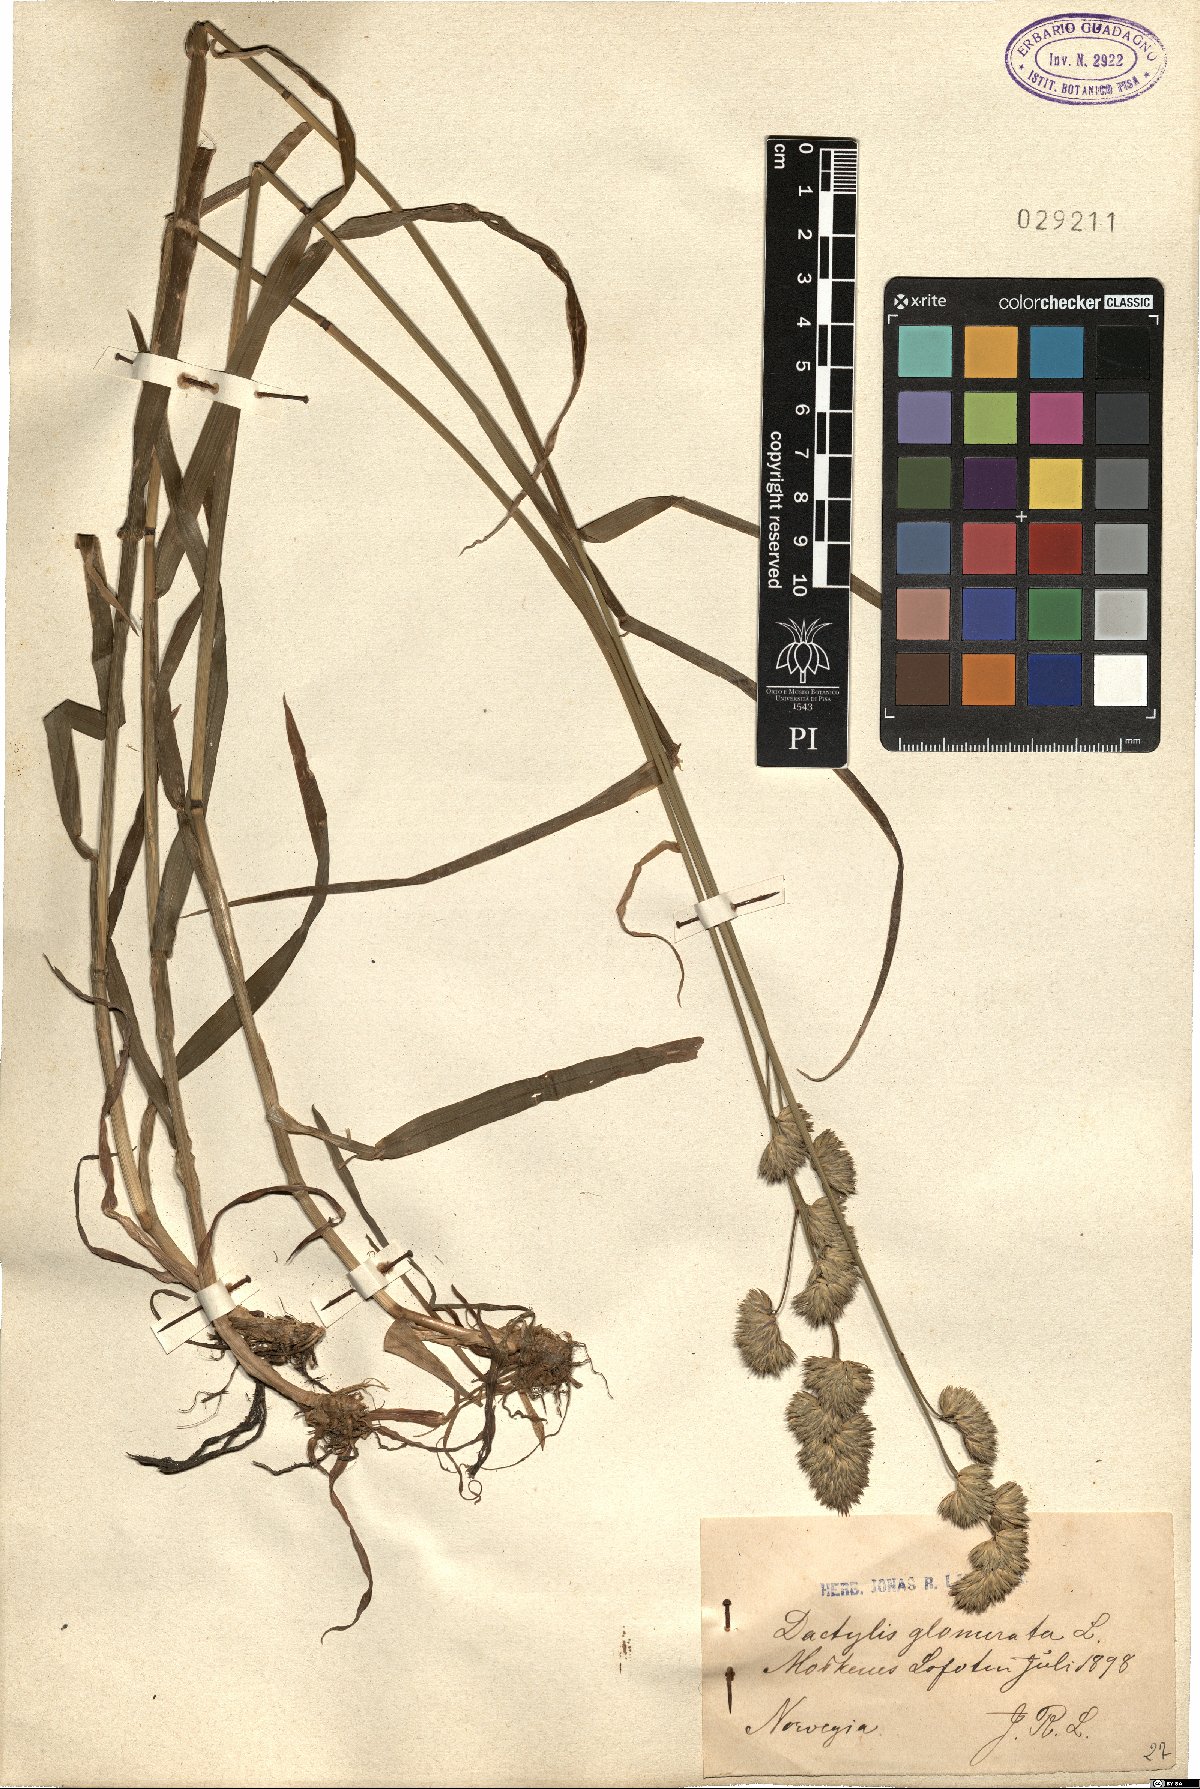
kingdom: Plantae
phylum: Tracheophyta
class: Liliopsida
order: Poales
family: Poaceae
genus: Dactylis
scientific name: Dactylis glomerata
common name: Orchardgrass
